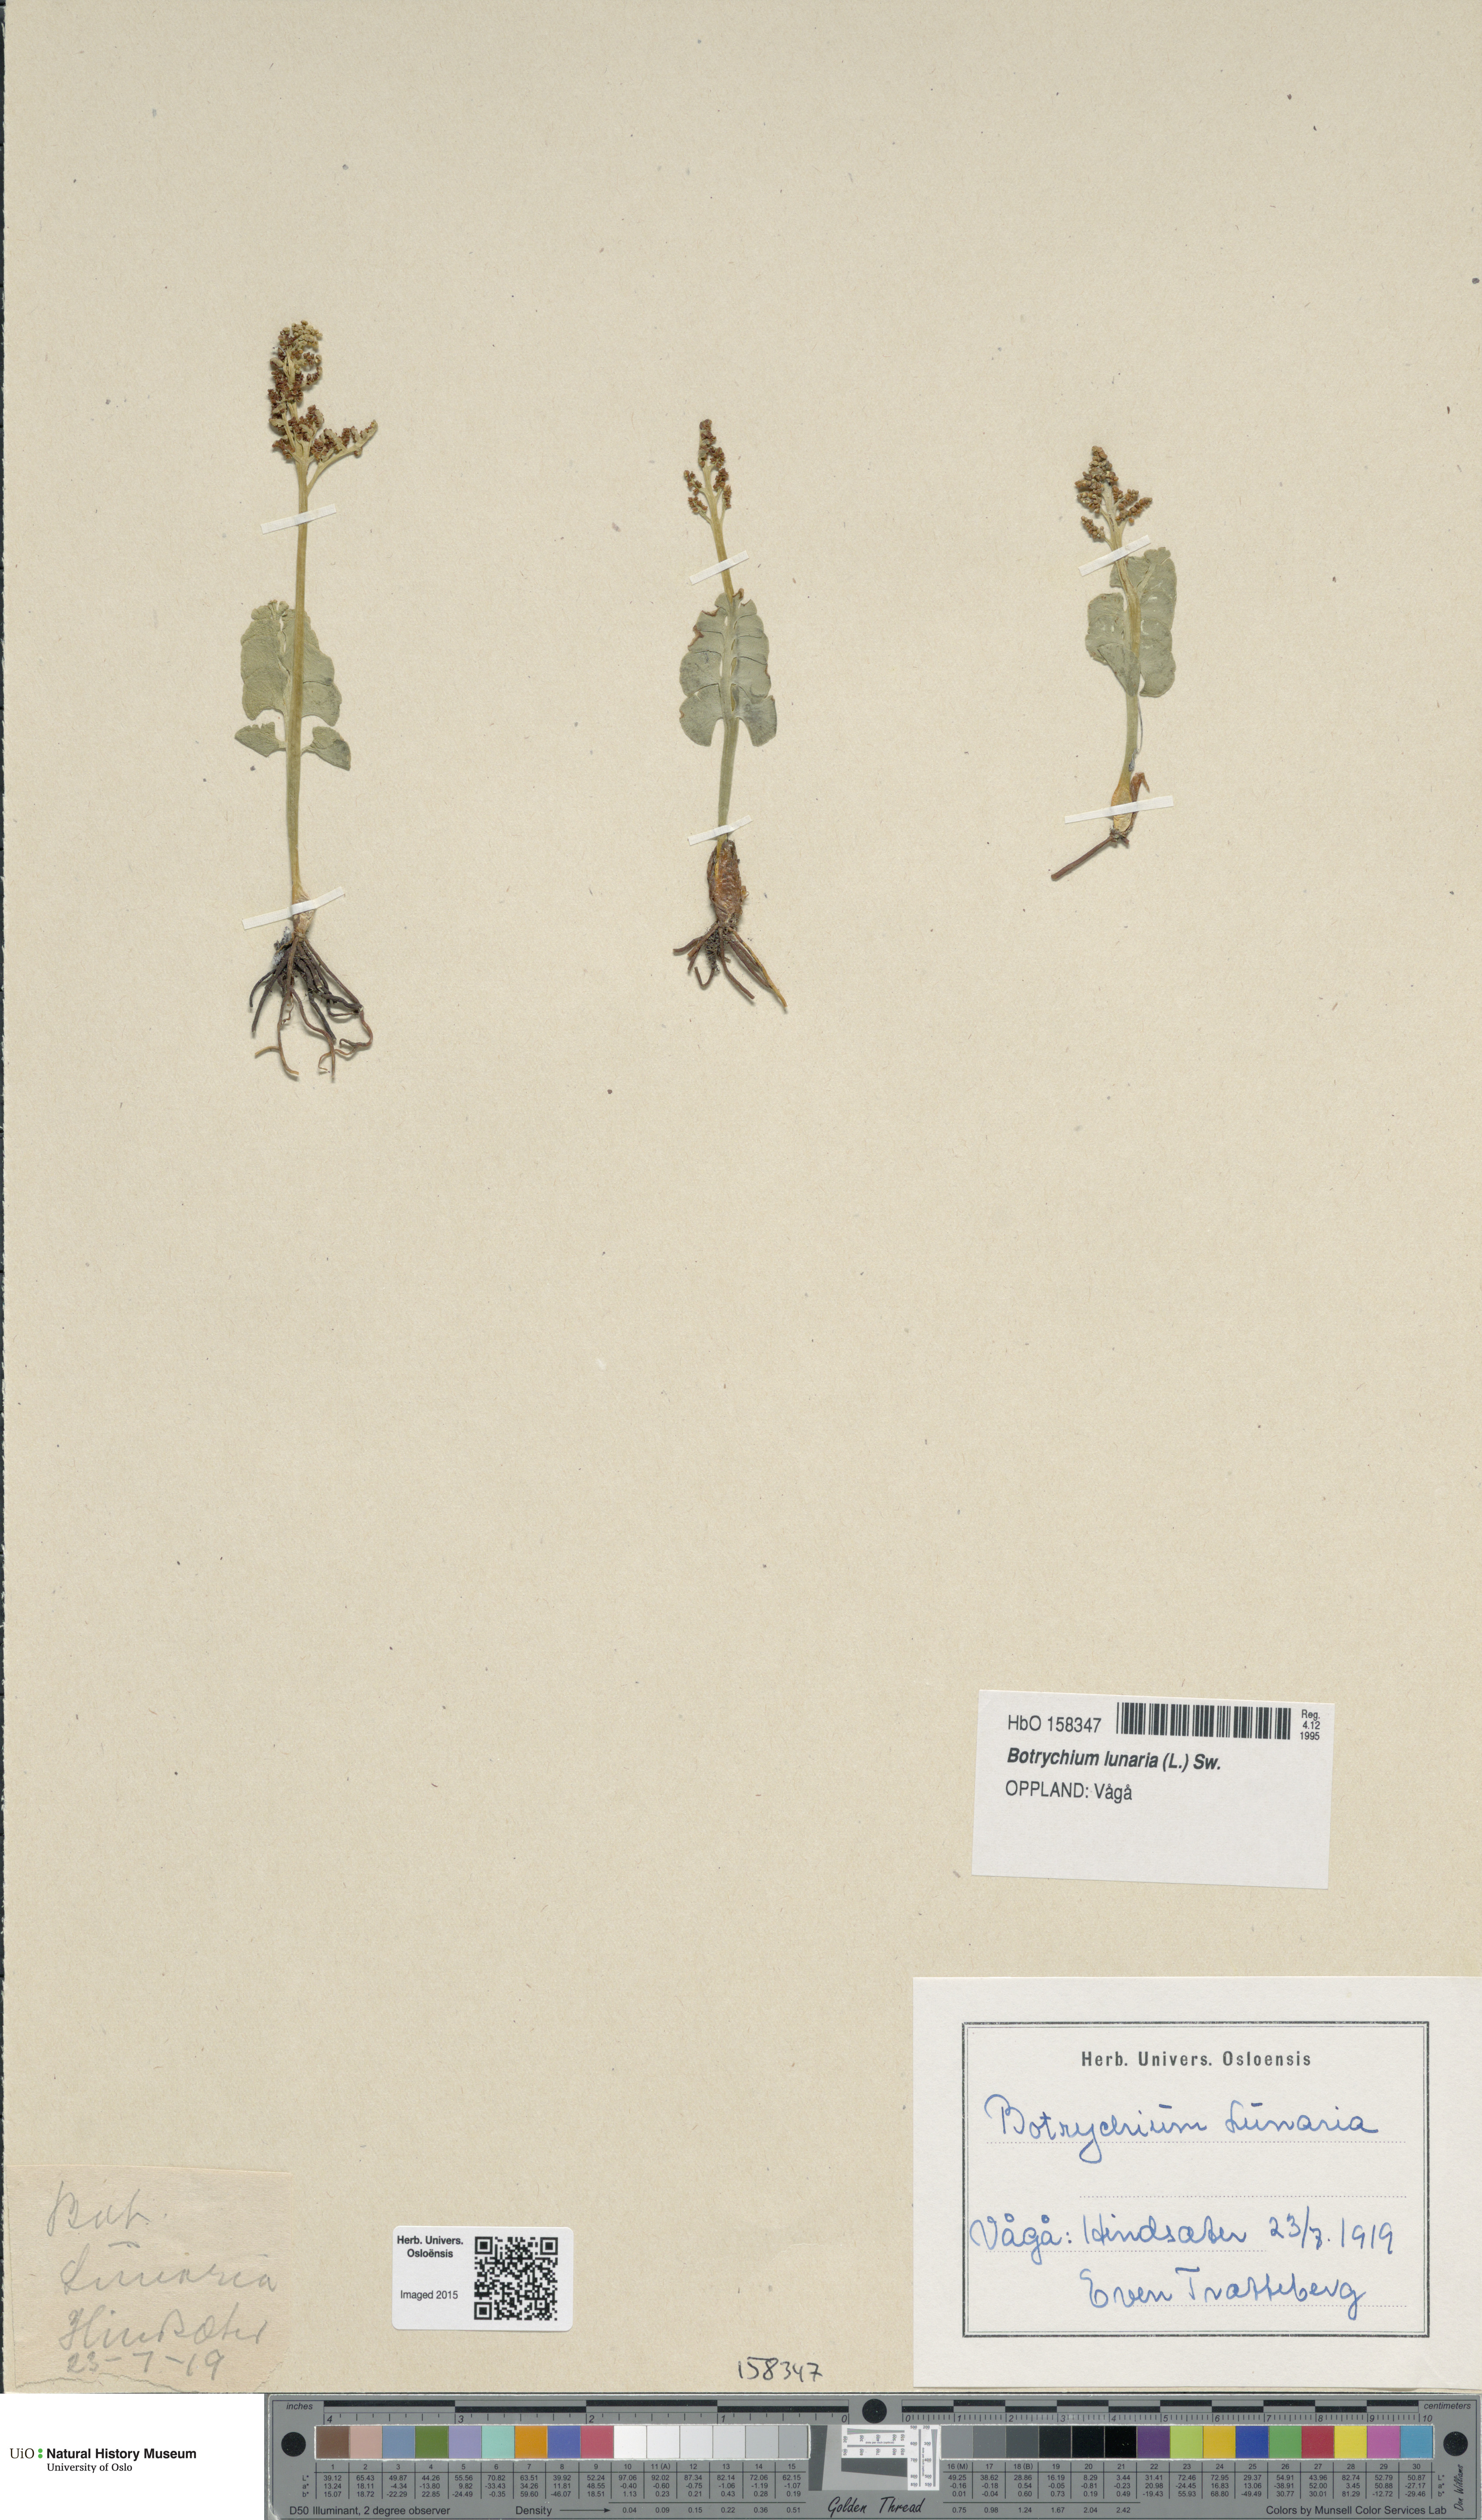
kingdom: Plantae
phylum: Tracheophyta
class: Polypodiopsida
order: Ophioglossales
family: Ophioglossaceae
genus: Botrychium
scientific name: Botrychium lunaria
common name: Moonwort
